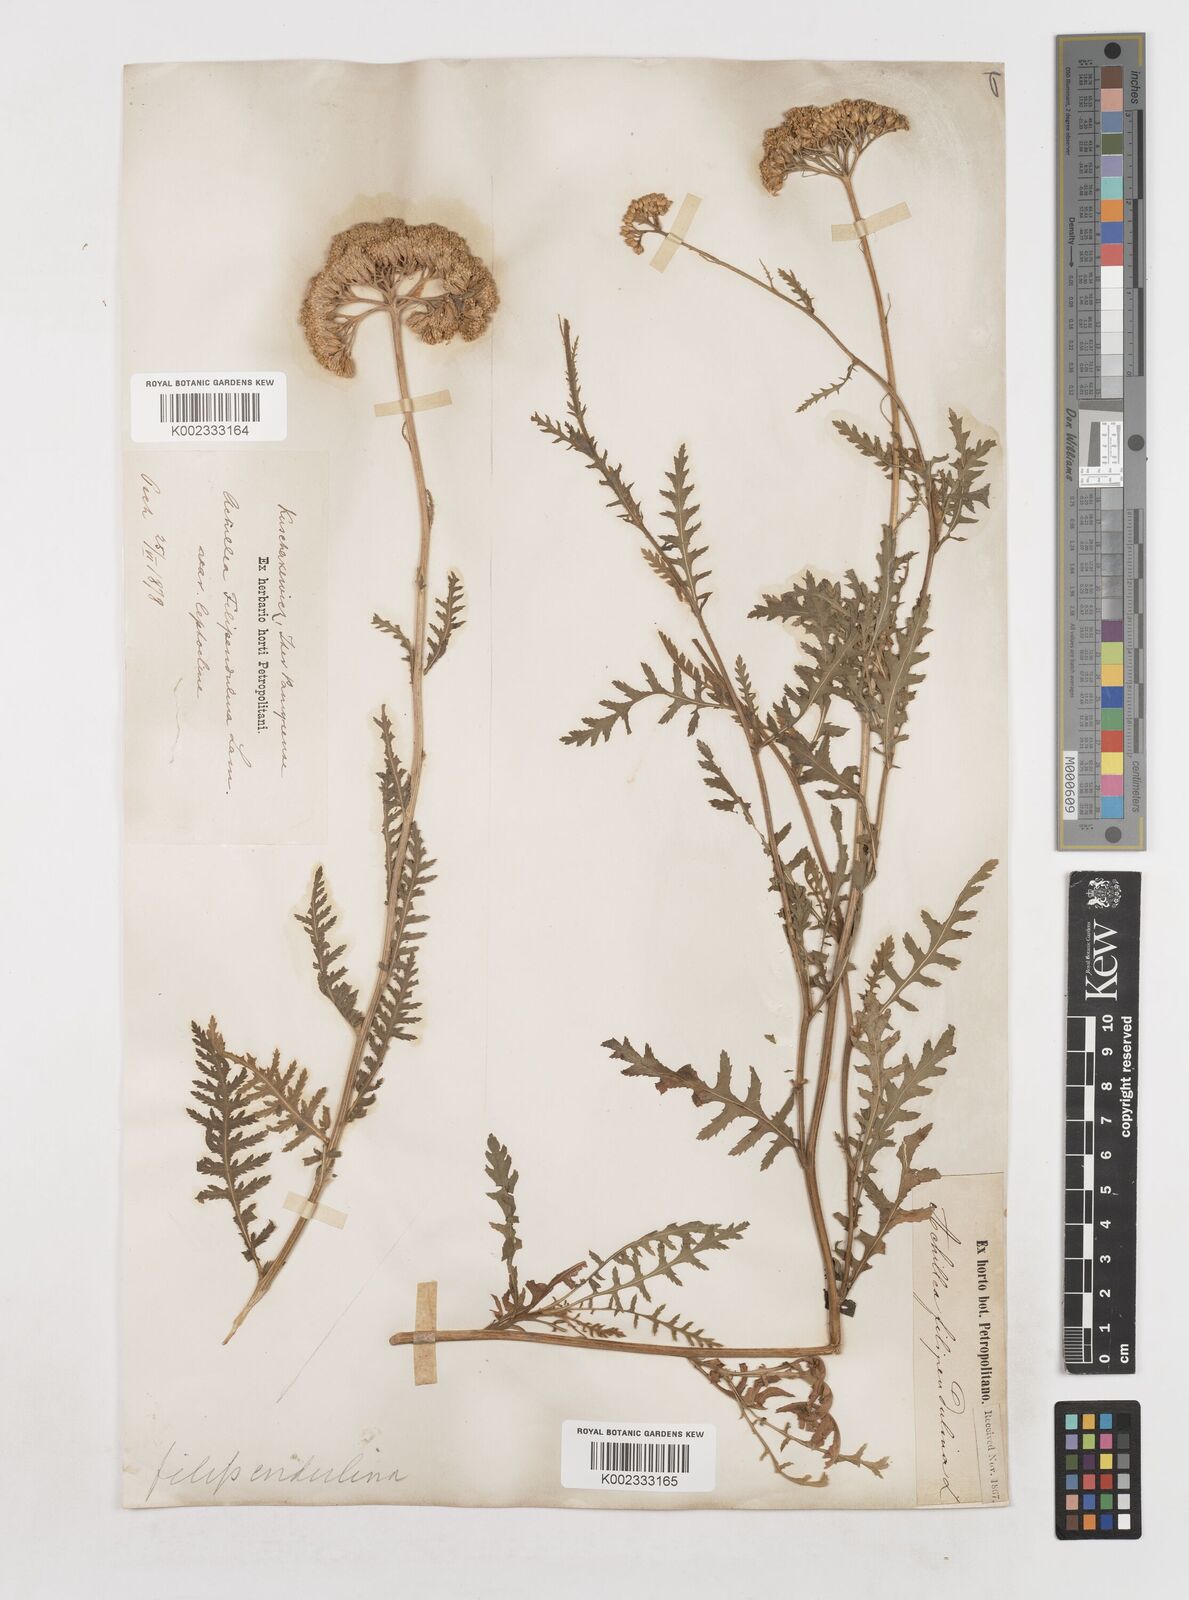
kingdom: Plantae
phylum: Tracheophyta
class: Magnoliopsida
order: Asterales
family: Asteraceae
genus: Achillea
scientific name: Achillea filipendulina
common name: Fernleaf yarrow
